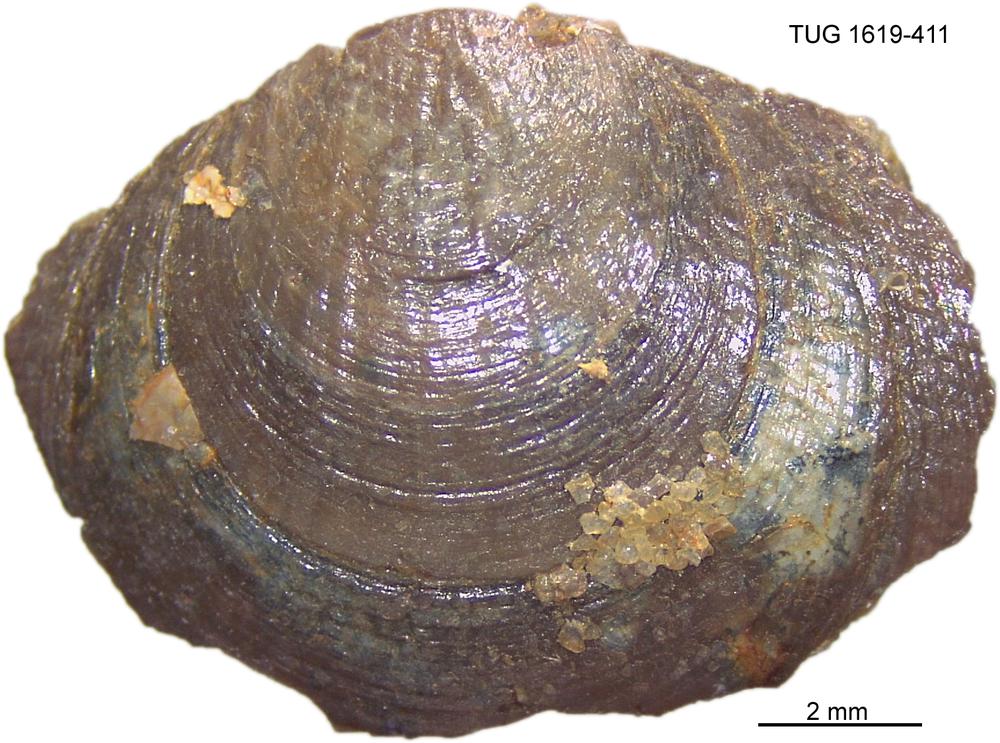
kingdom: Animalia
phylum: Porifera
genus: Ungula
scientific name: Ungula
